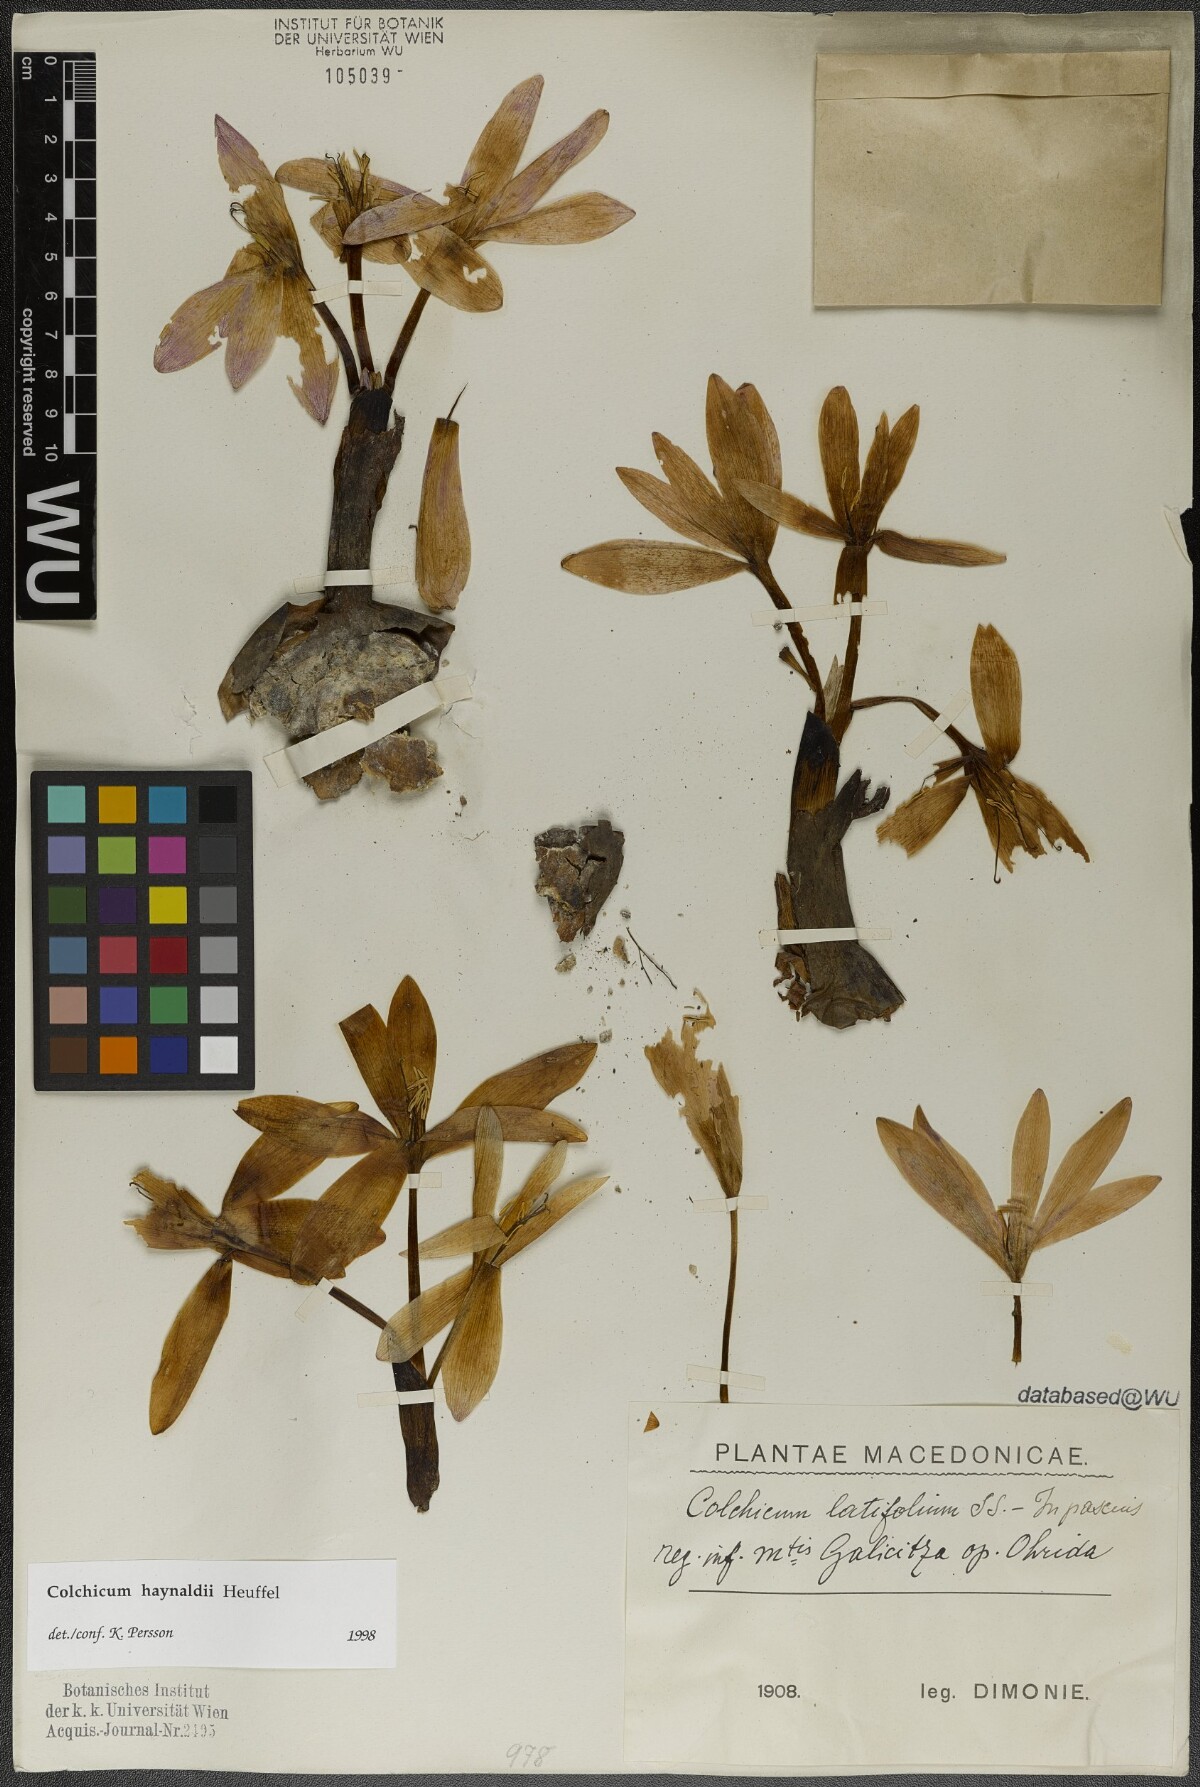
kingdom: Plantae
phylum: Tracheophyta
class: Liliopsida
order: Liliales
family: Colchicaceae
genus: Colchicum
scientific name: Colchicum haynaldii
